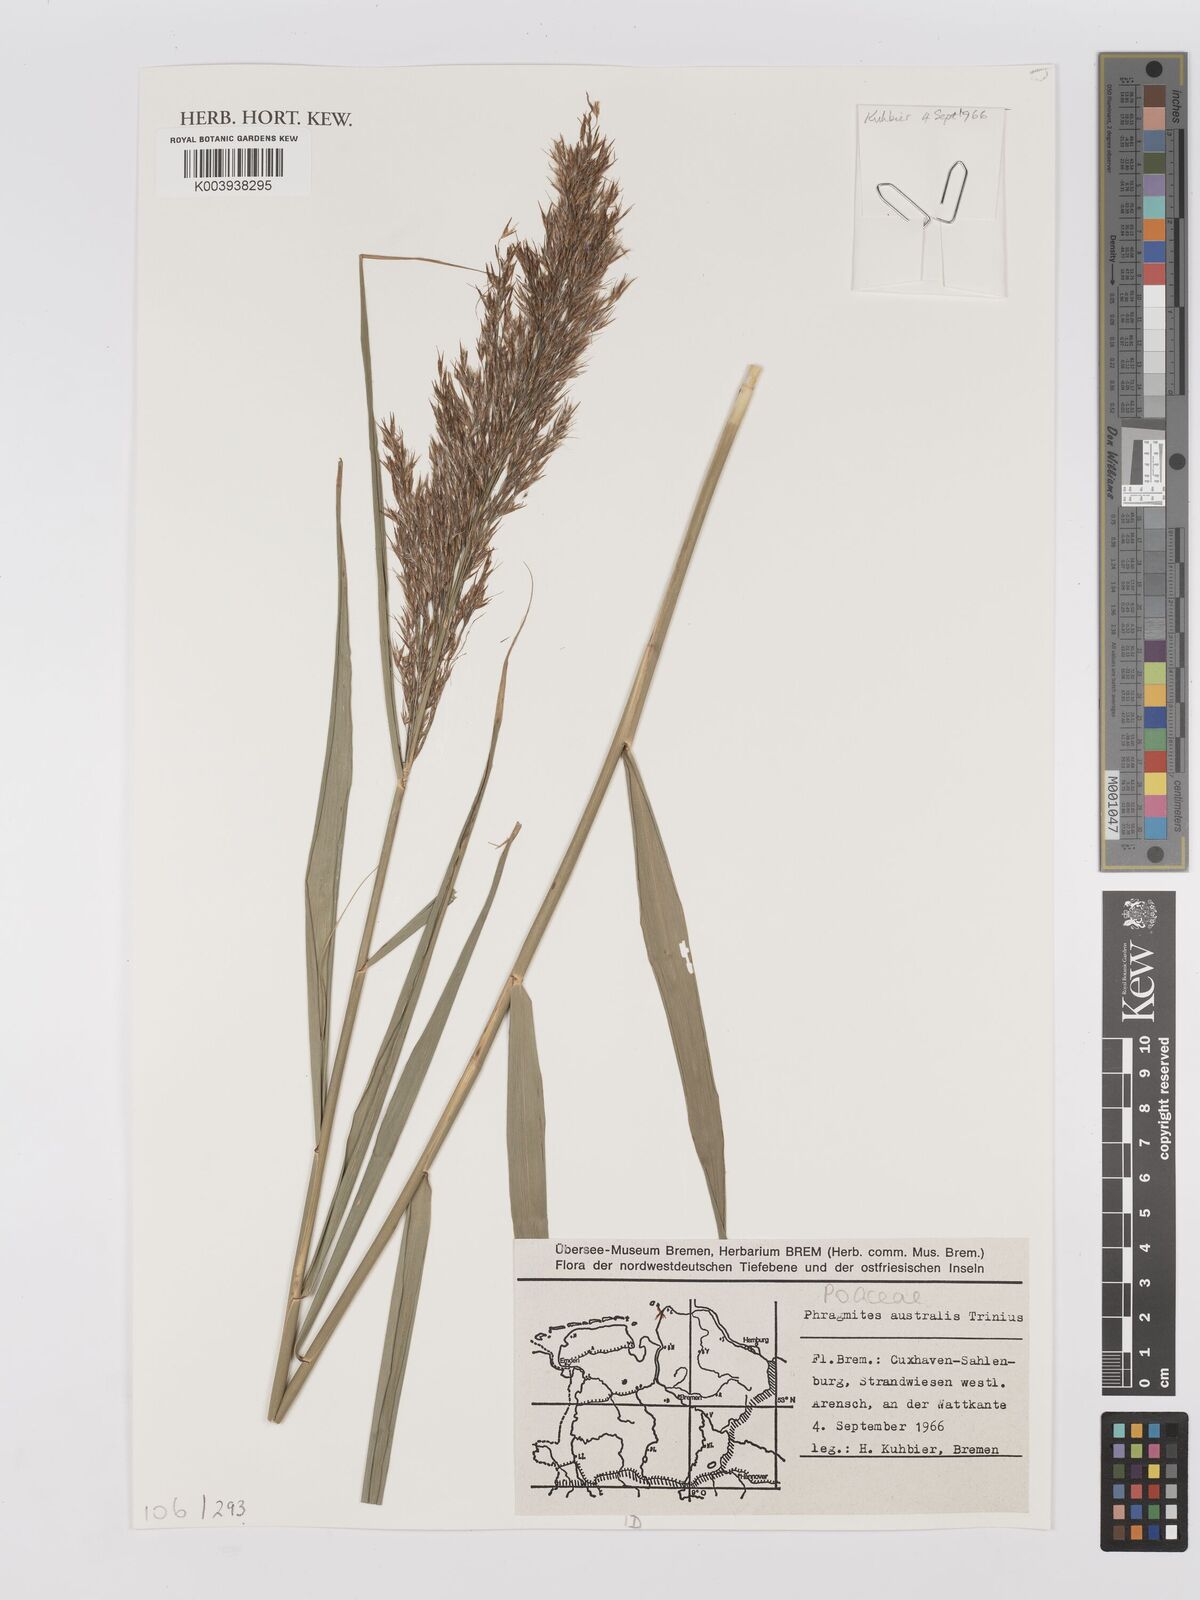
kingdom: Plantae
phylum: Tracheophyta
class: Liliopsida
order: Poales
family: Poaceae
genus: Phragmites
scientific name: Phragmites australis
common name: Common reed
